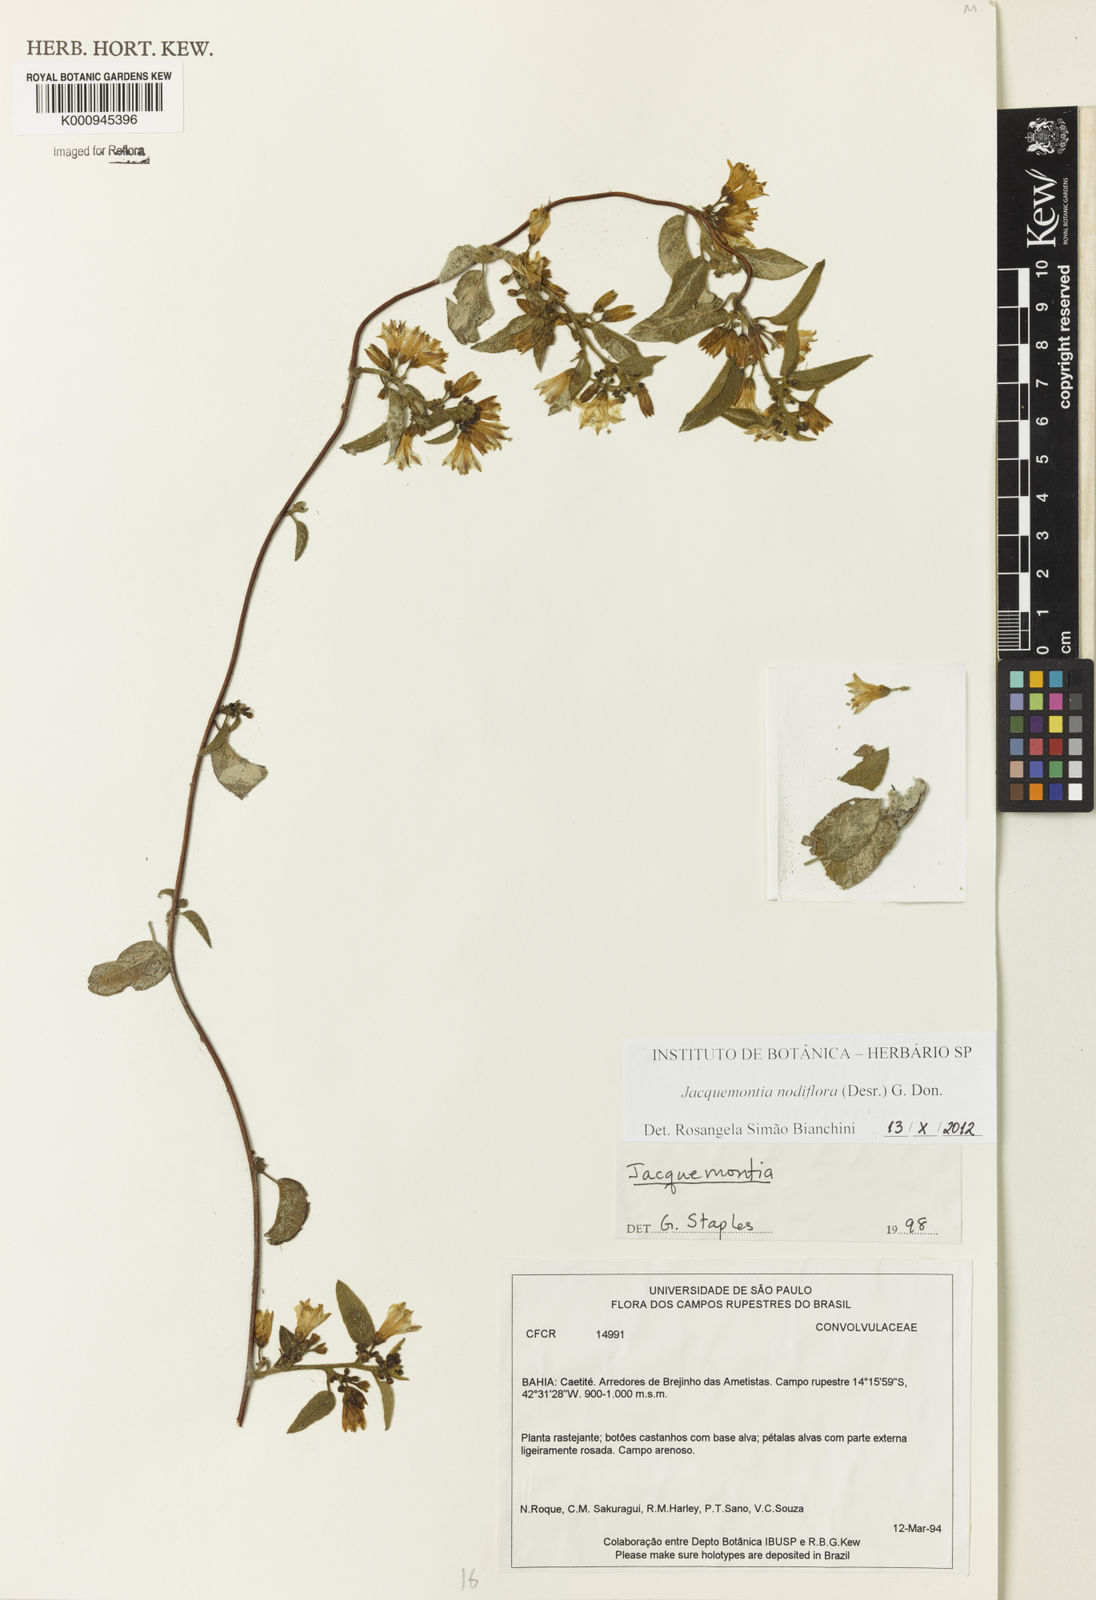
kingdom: Plantae
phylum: Tracheophyta
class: Magnoliopsida
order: Solanales
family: Convolvulaceae
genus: Jacquemontia
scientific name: Jacquemontia nodiflora
